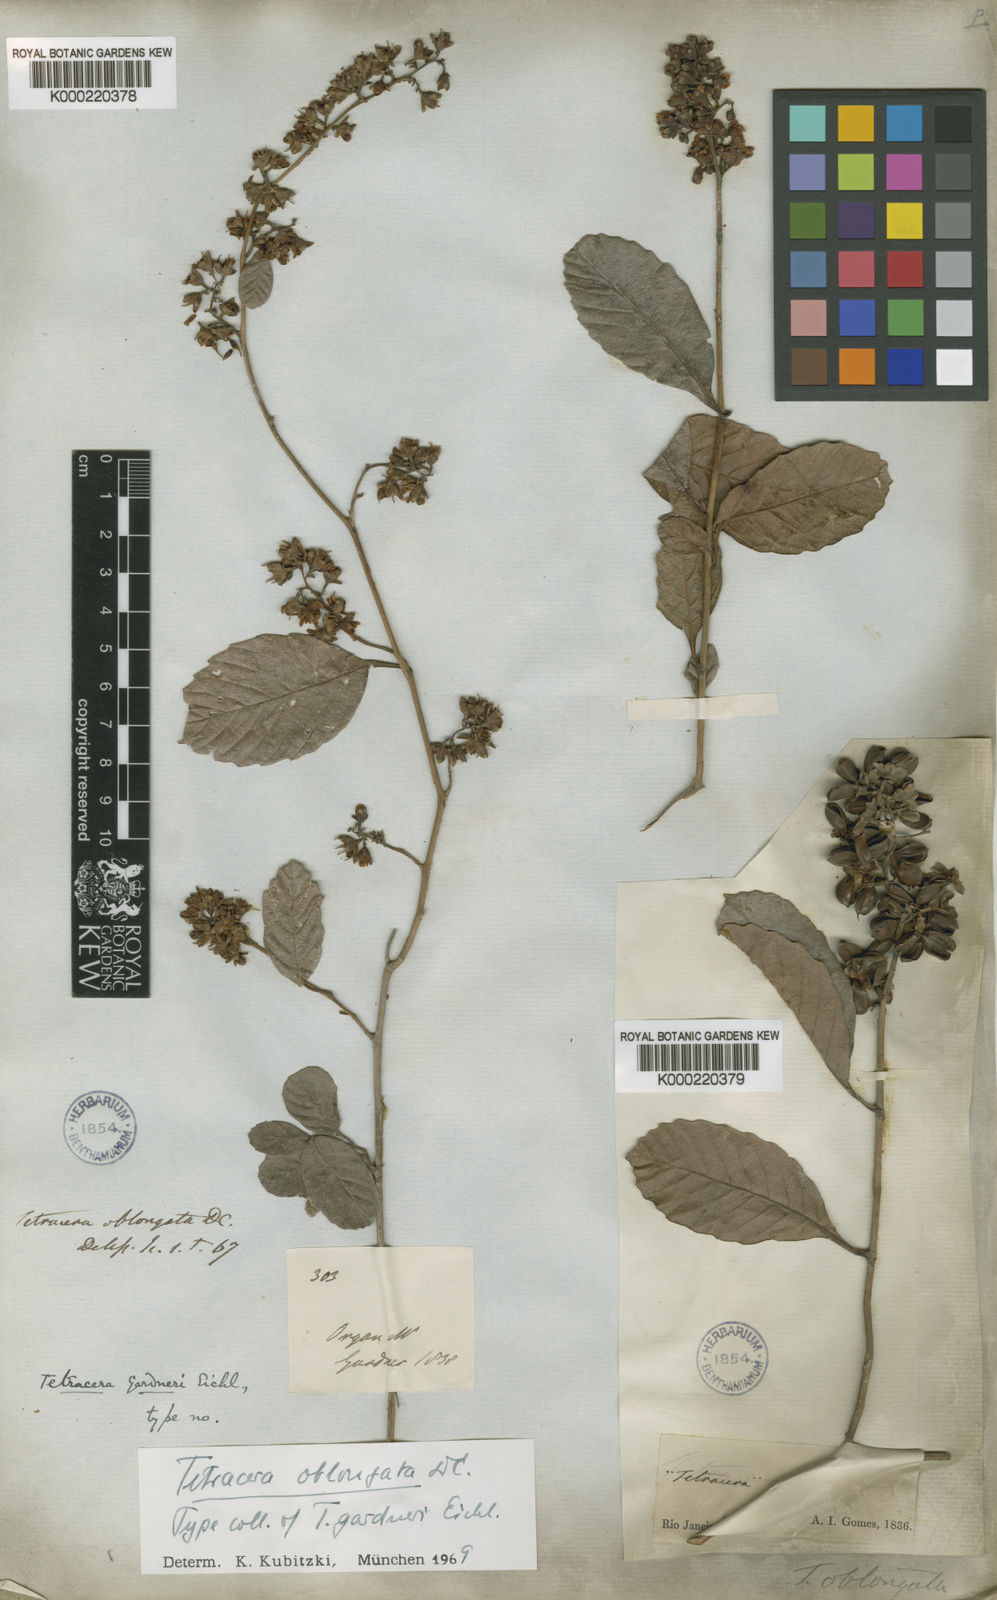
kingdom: Plantae
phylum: Tracheophyta
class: Magnoliopsida
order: Dilleniales
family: Dilleniaceae
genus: Tetracera
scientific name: Tetracera oblongata
